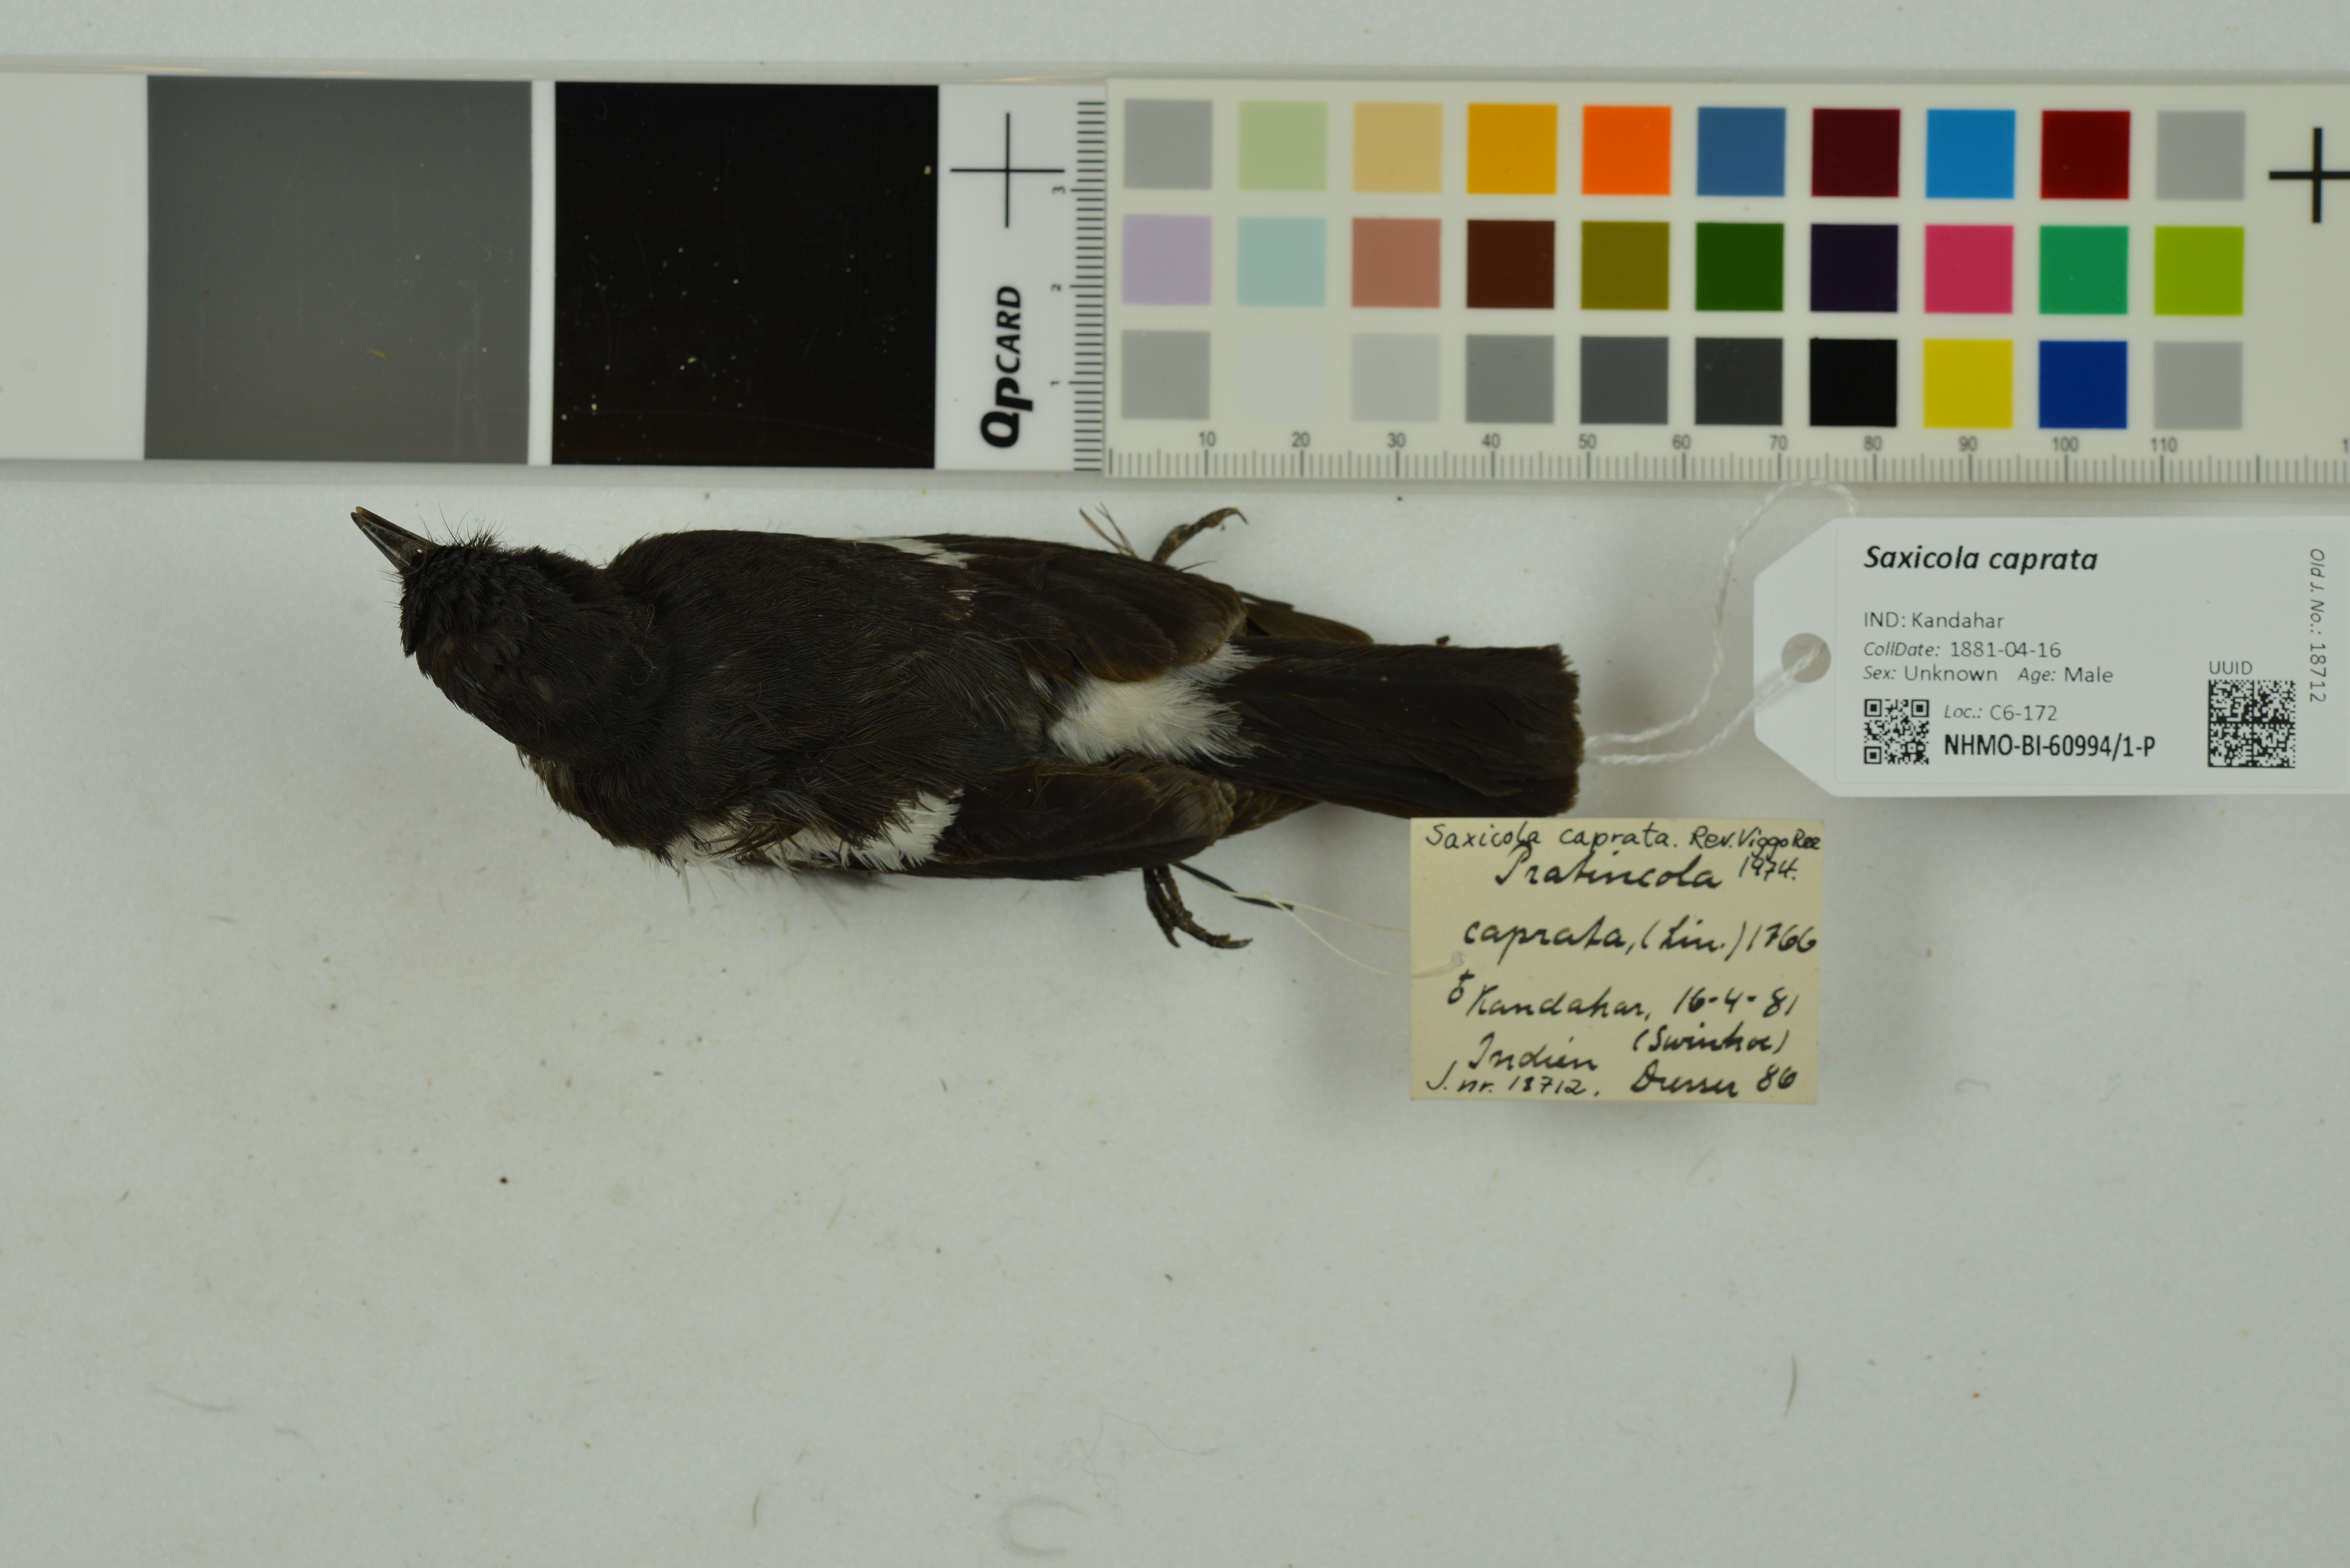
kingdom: Animalia
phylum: Chordata
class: Aves
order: Passeriformes
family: Muscicapidae
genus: Saxicola
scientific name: Saxicola caprata
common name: Pied bush chat
